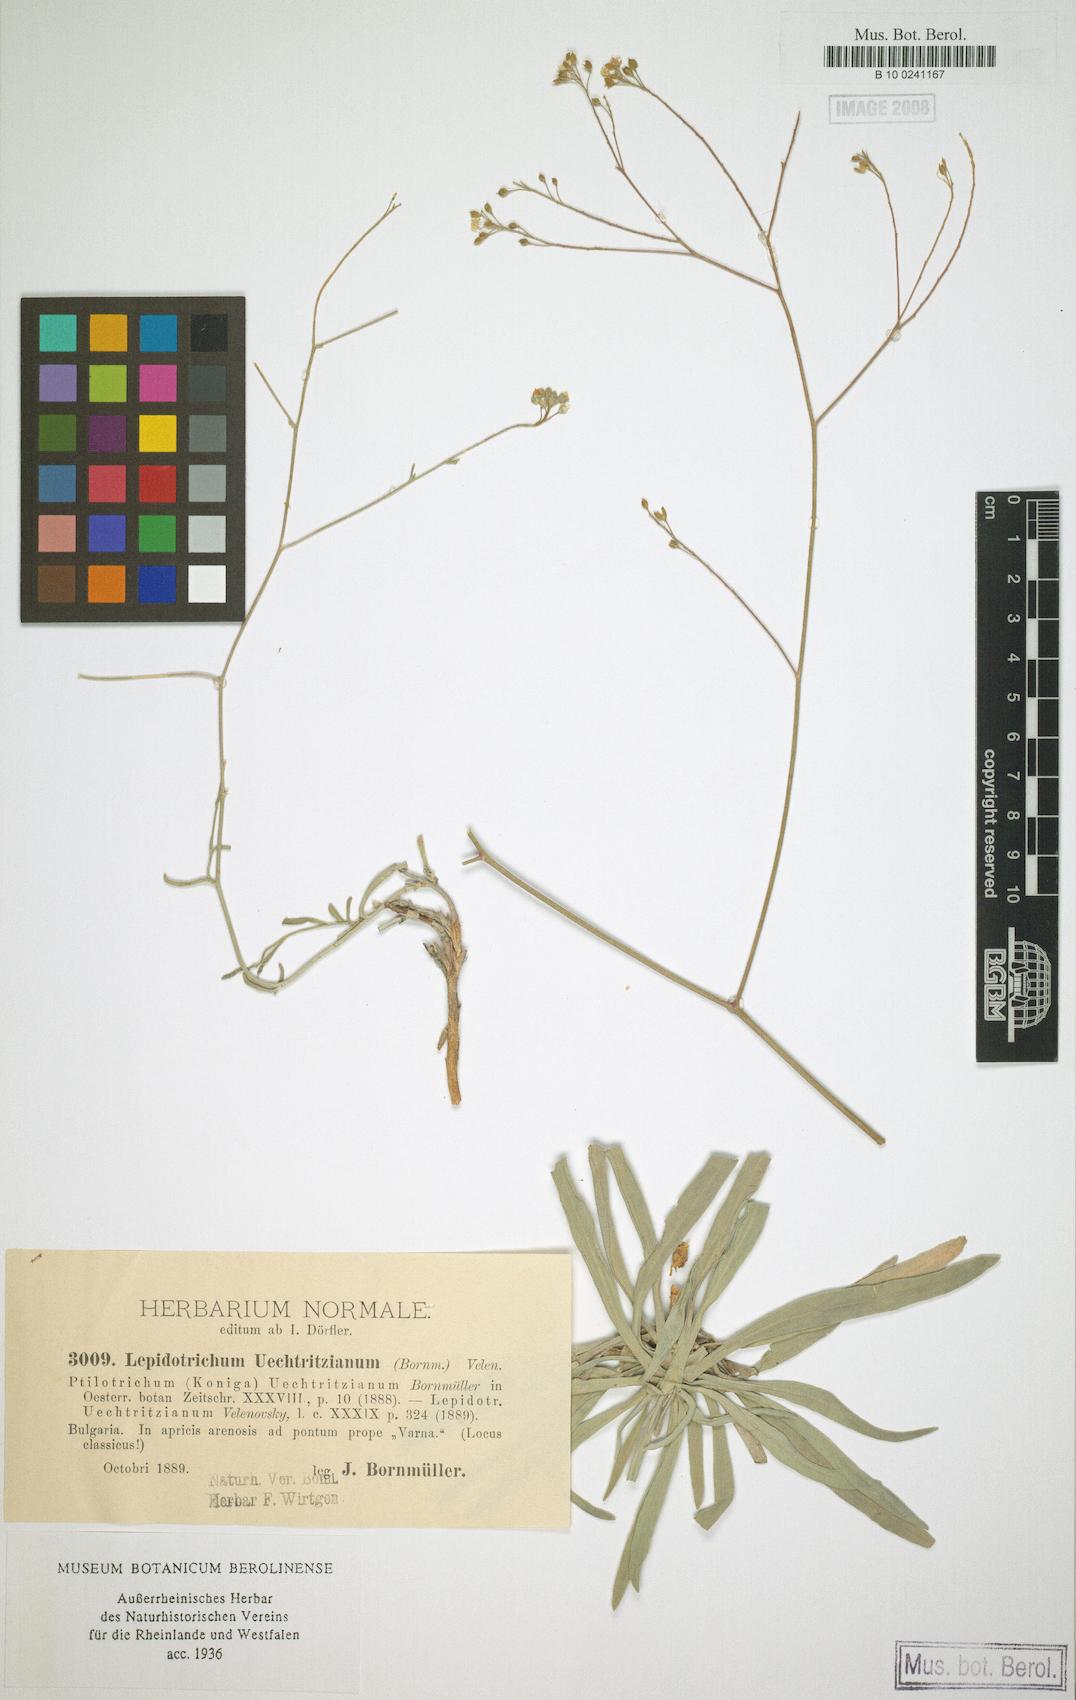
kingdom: Plantae
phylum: Tracheophyta
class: Magnoliopsida
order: Brassicales
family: Brassicaceae
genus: Lepidotrichum
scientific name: Lepidotrichum uechtritzianum
